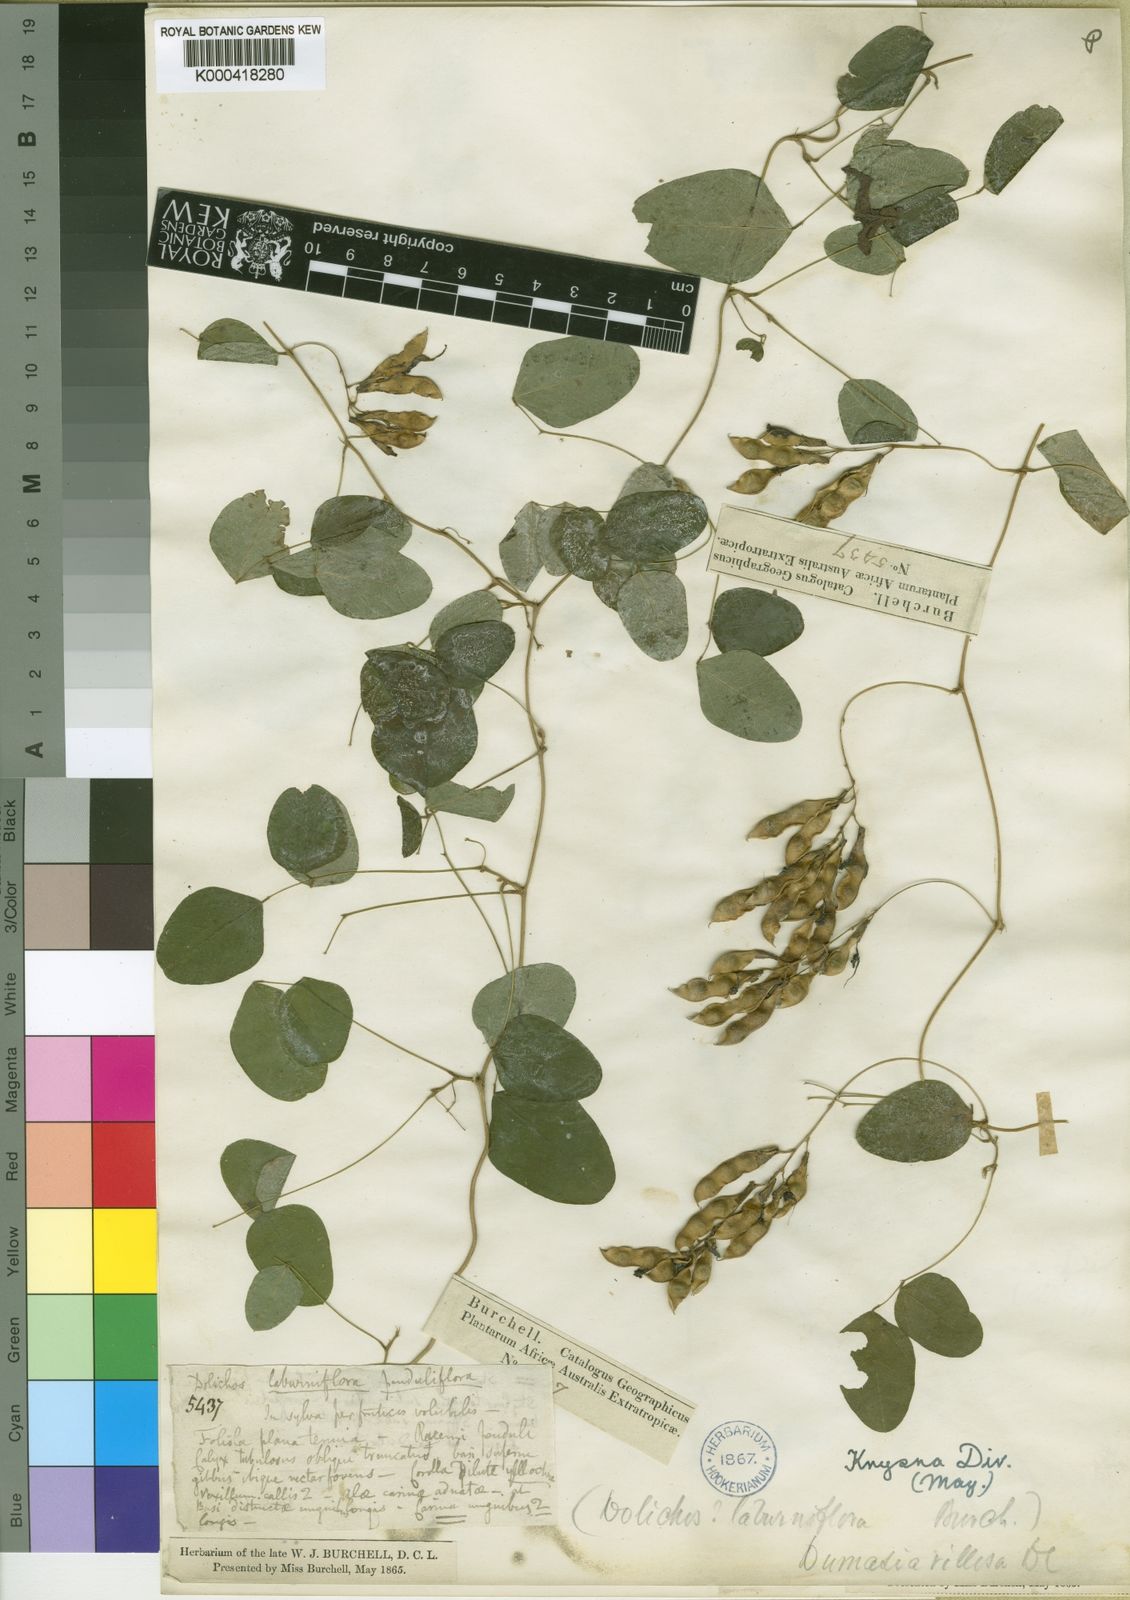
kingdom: Plantae
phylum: Tracheophyta
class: Magnoliopsida
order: Fabales
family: Fabaceae
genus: Dumasia
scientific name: Dumasia villosa
